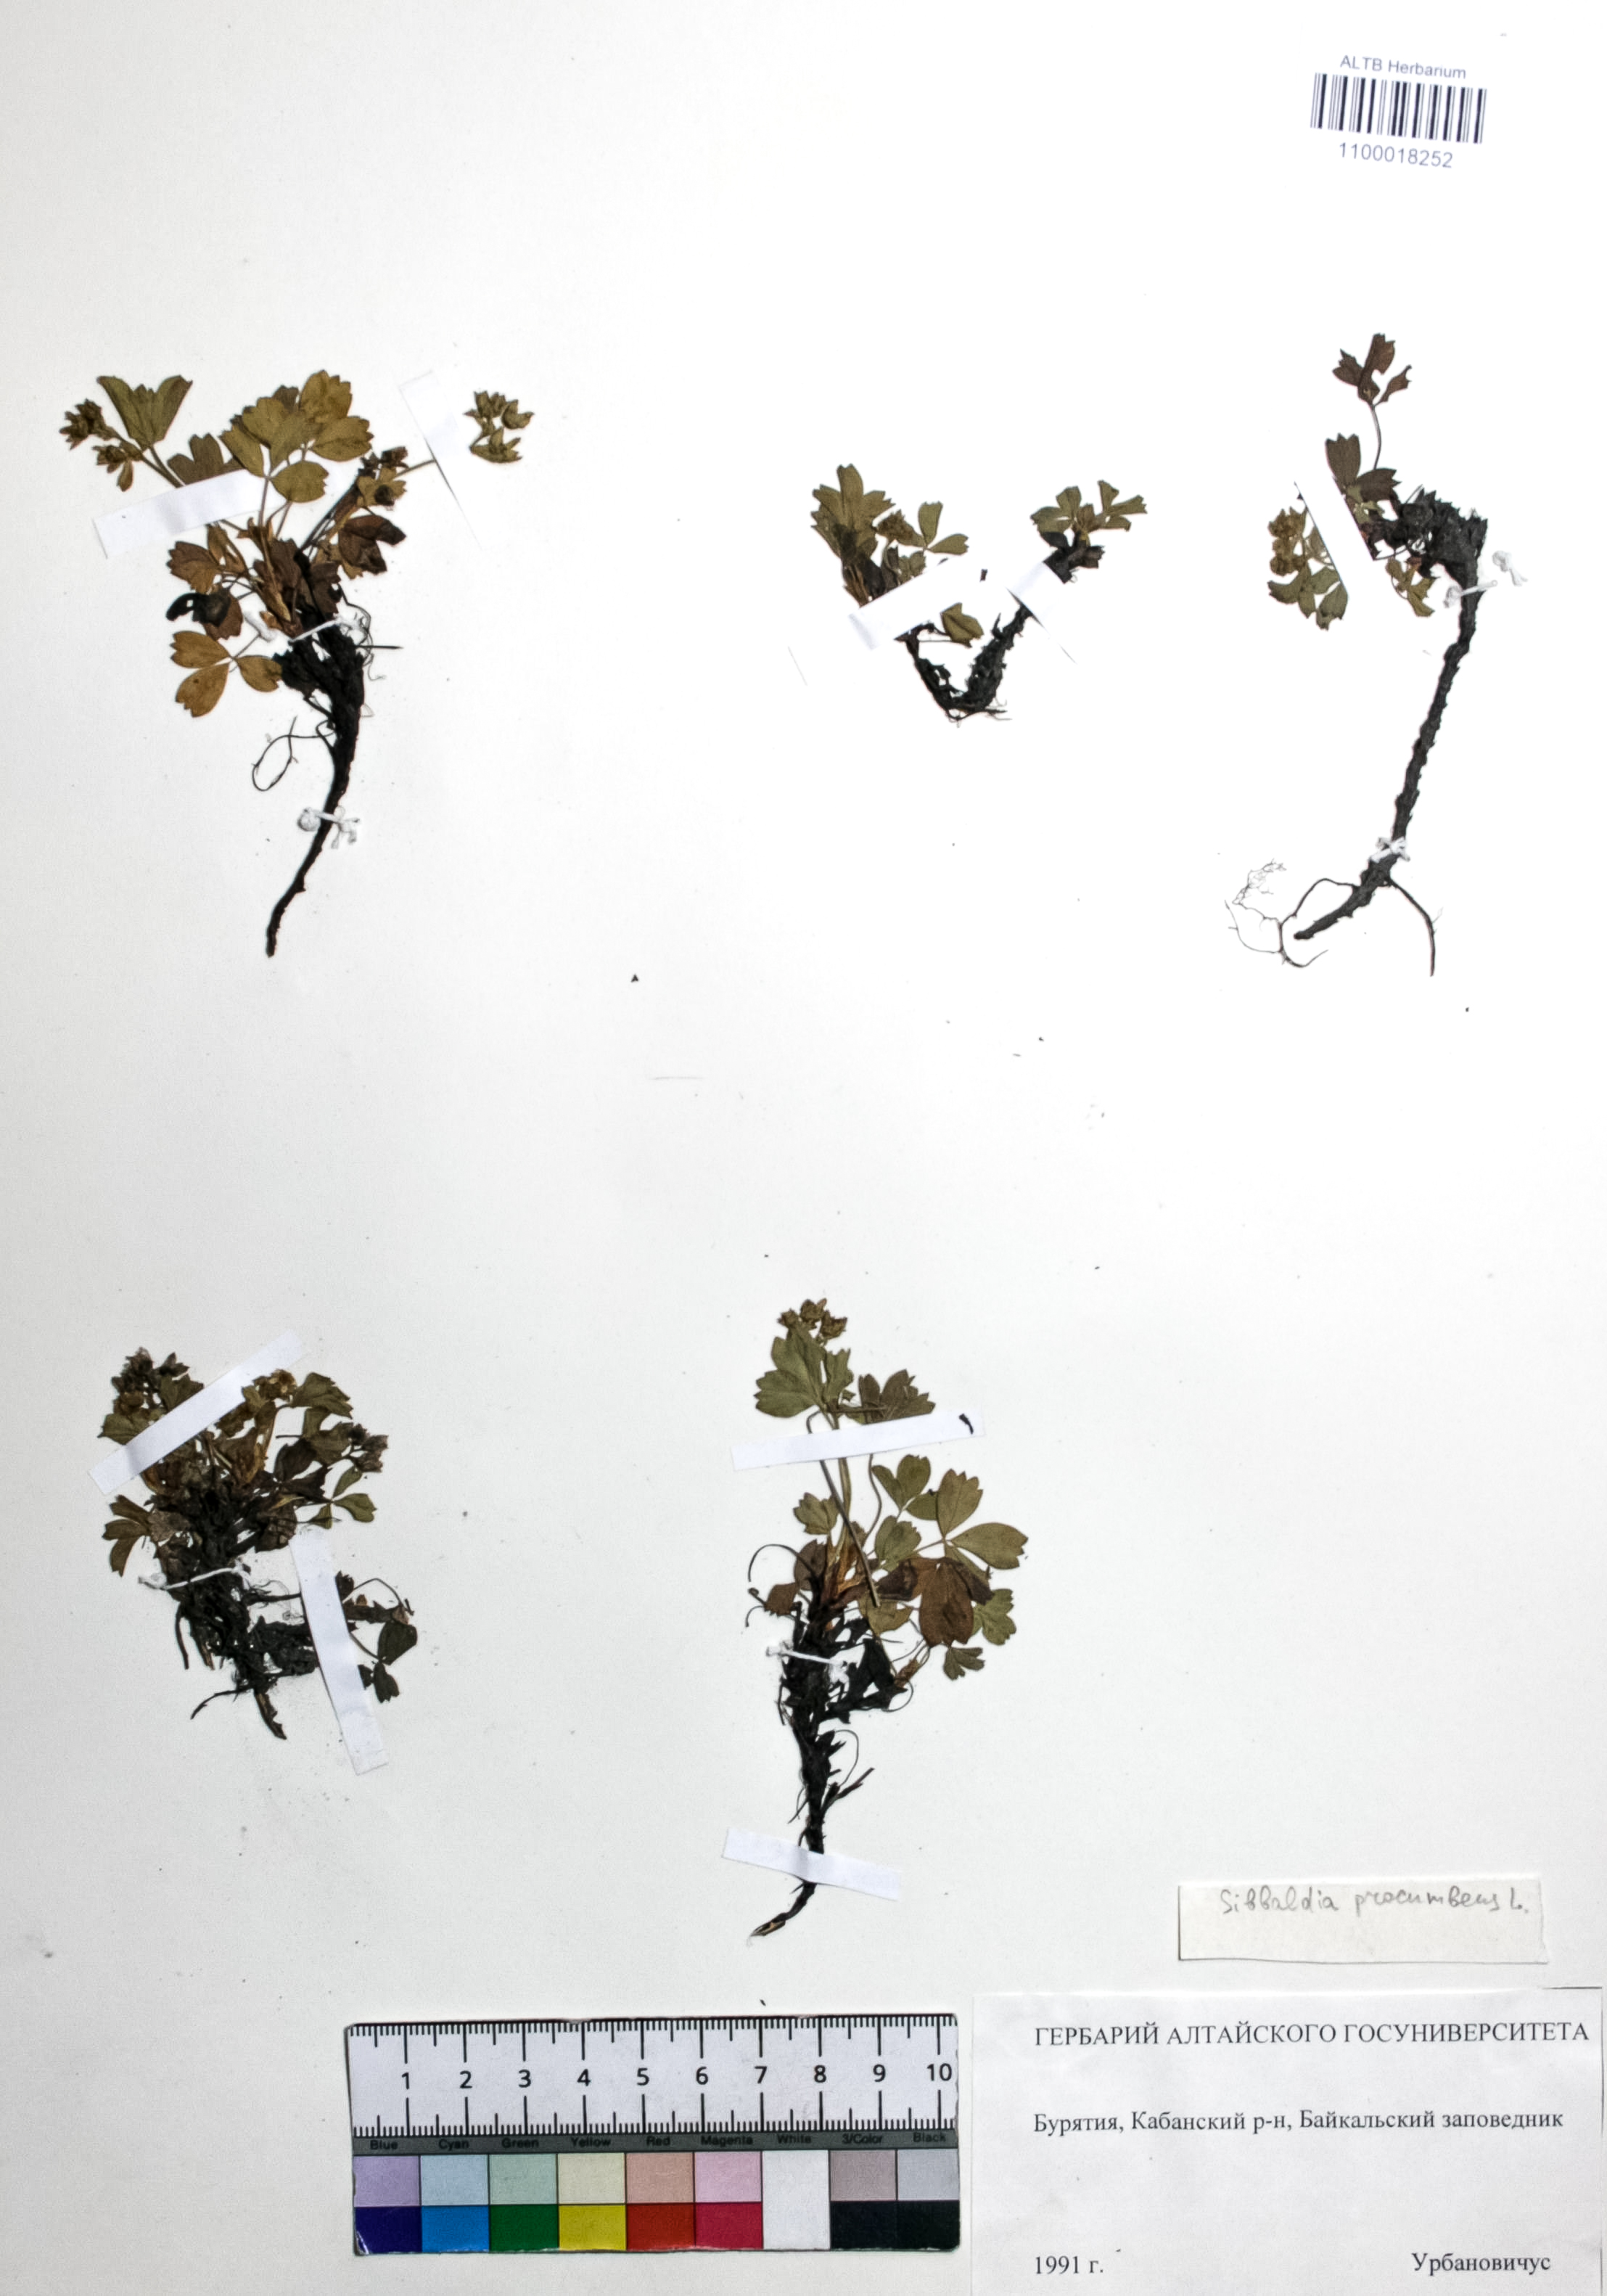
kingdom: Plantae
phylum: Tracheophyta
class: Magnoliopsida
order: Rosales
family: Rosaceae
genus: Sibbaldia
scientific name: Sibbaldia procumbens
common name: Creeping sibbaldia
